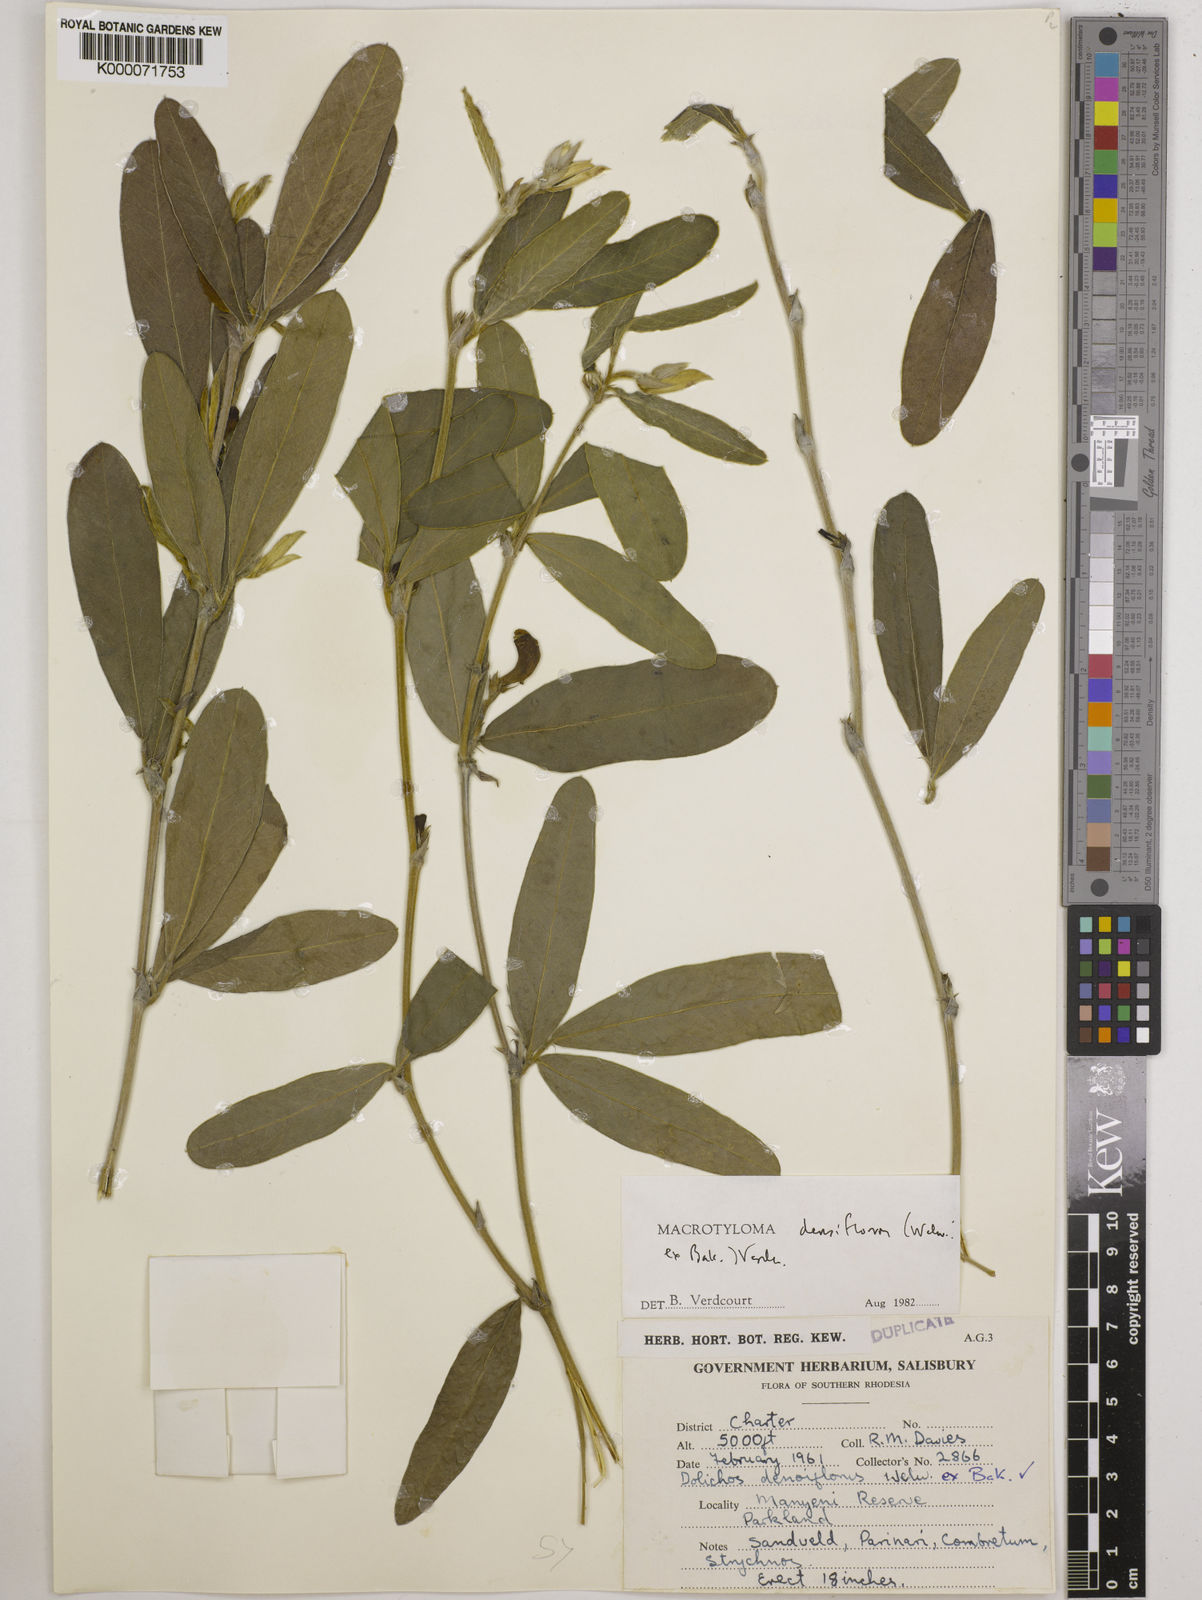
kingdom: Plantae
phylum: Tracheophyta
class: Magnoliopsida
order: Fabales
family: Fabaceae
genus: Macrotyloma
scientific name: Macrotyloma densiflorum
